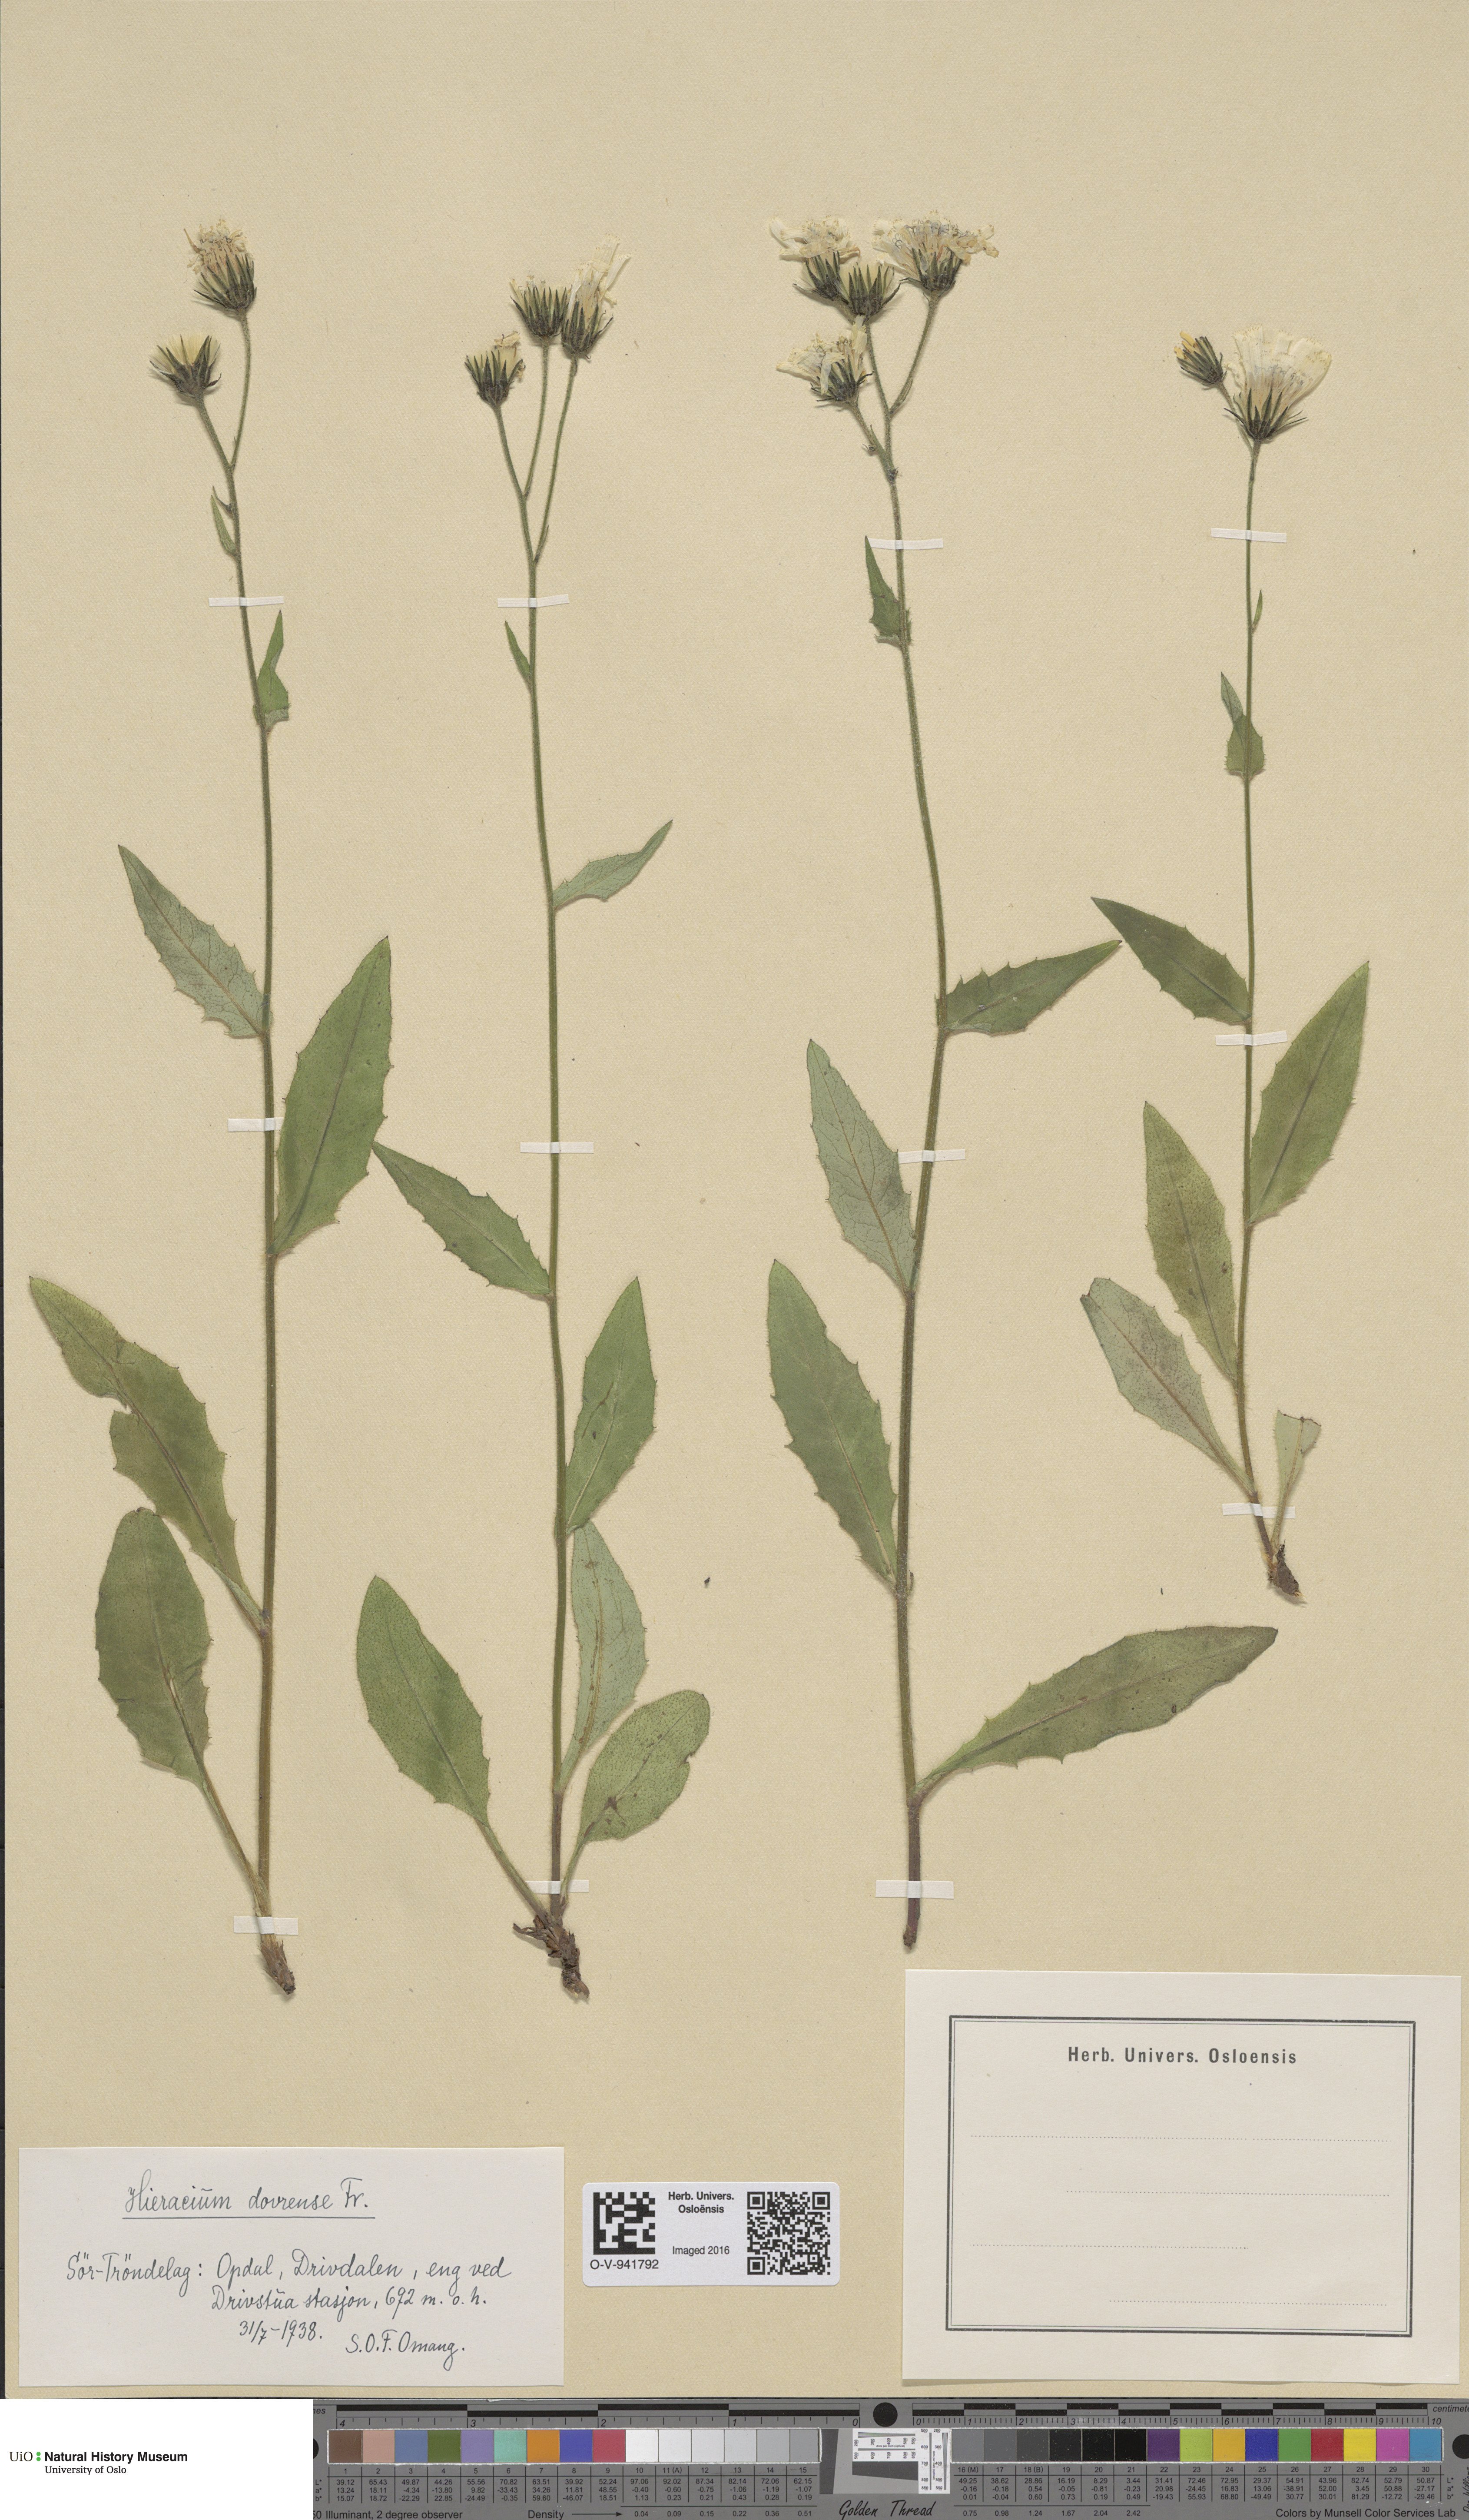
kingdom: Plantae
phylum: Tracheophyta
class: Magnoliopsida
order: Asterales
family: Asteraceae
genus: Hieracium
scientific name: Hieracium dovrense
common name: Dovre hawkweed
